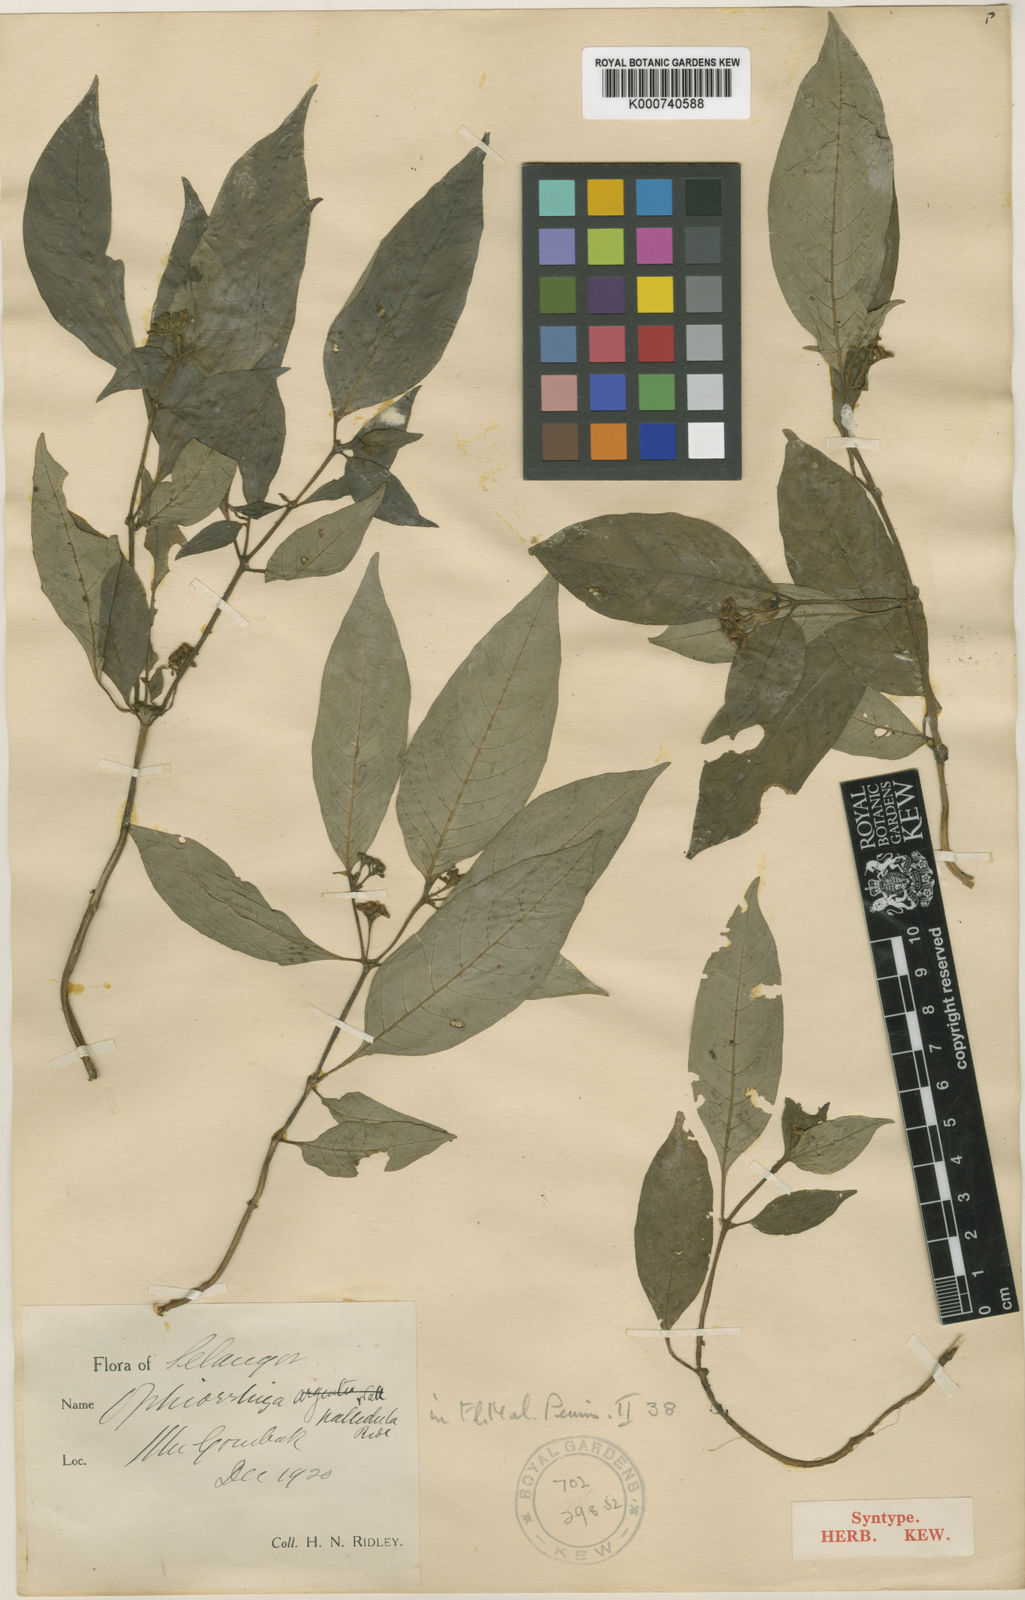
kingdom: Plantae
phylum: Tracheophyta
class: Magnoliopsida
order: Gentianales
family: Rubiaceae
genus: Ophiorrhiza
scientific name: Ophiorrhiza pallidula
